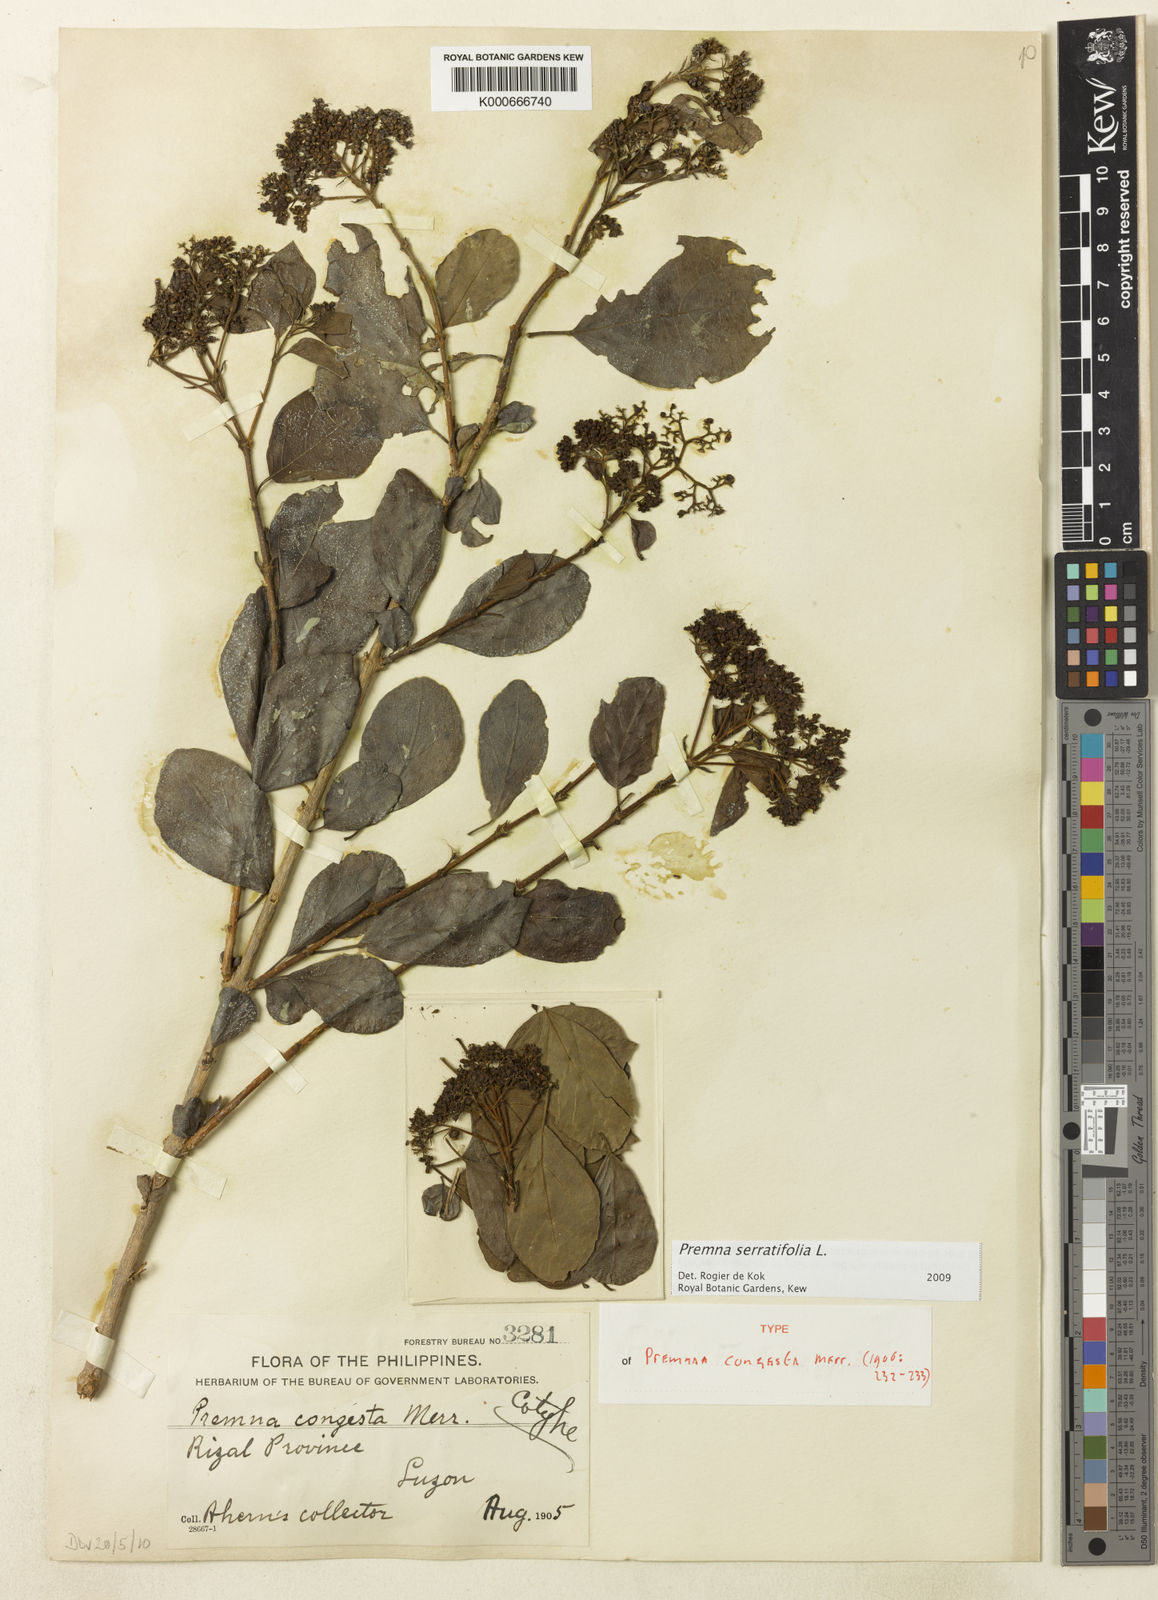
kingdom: Plantae
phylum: Tracheophyta
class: Magnoliopsida
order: Lamiales
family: Lamiaceae
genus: Premna
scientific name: Premna serratifolia
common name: Bastard guelder
